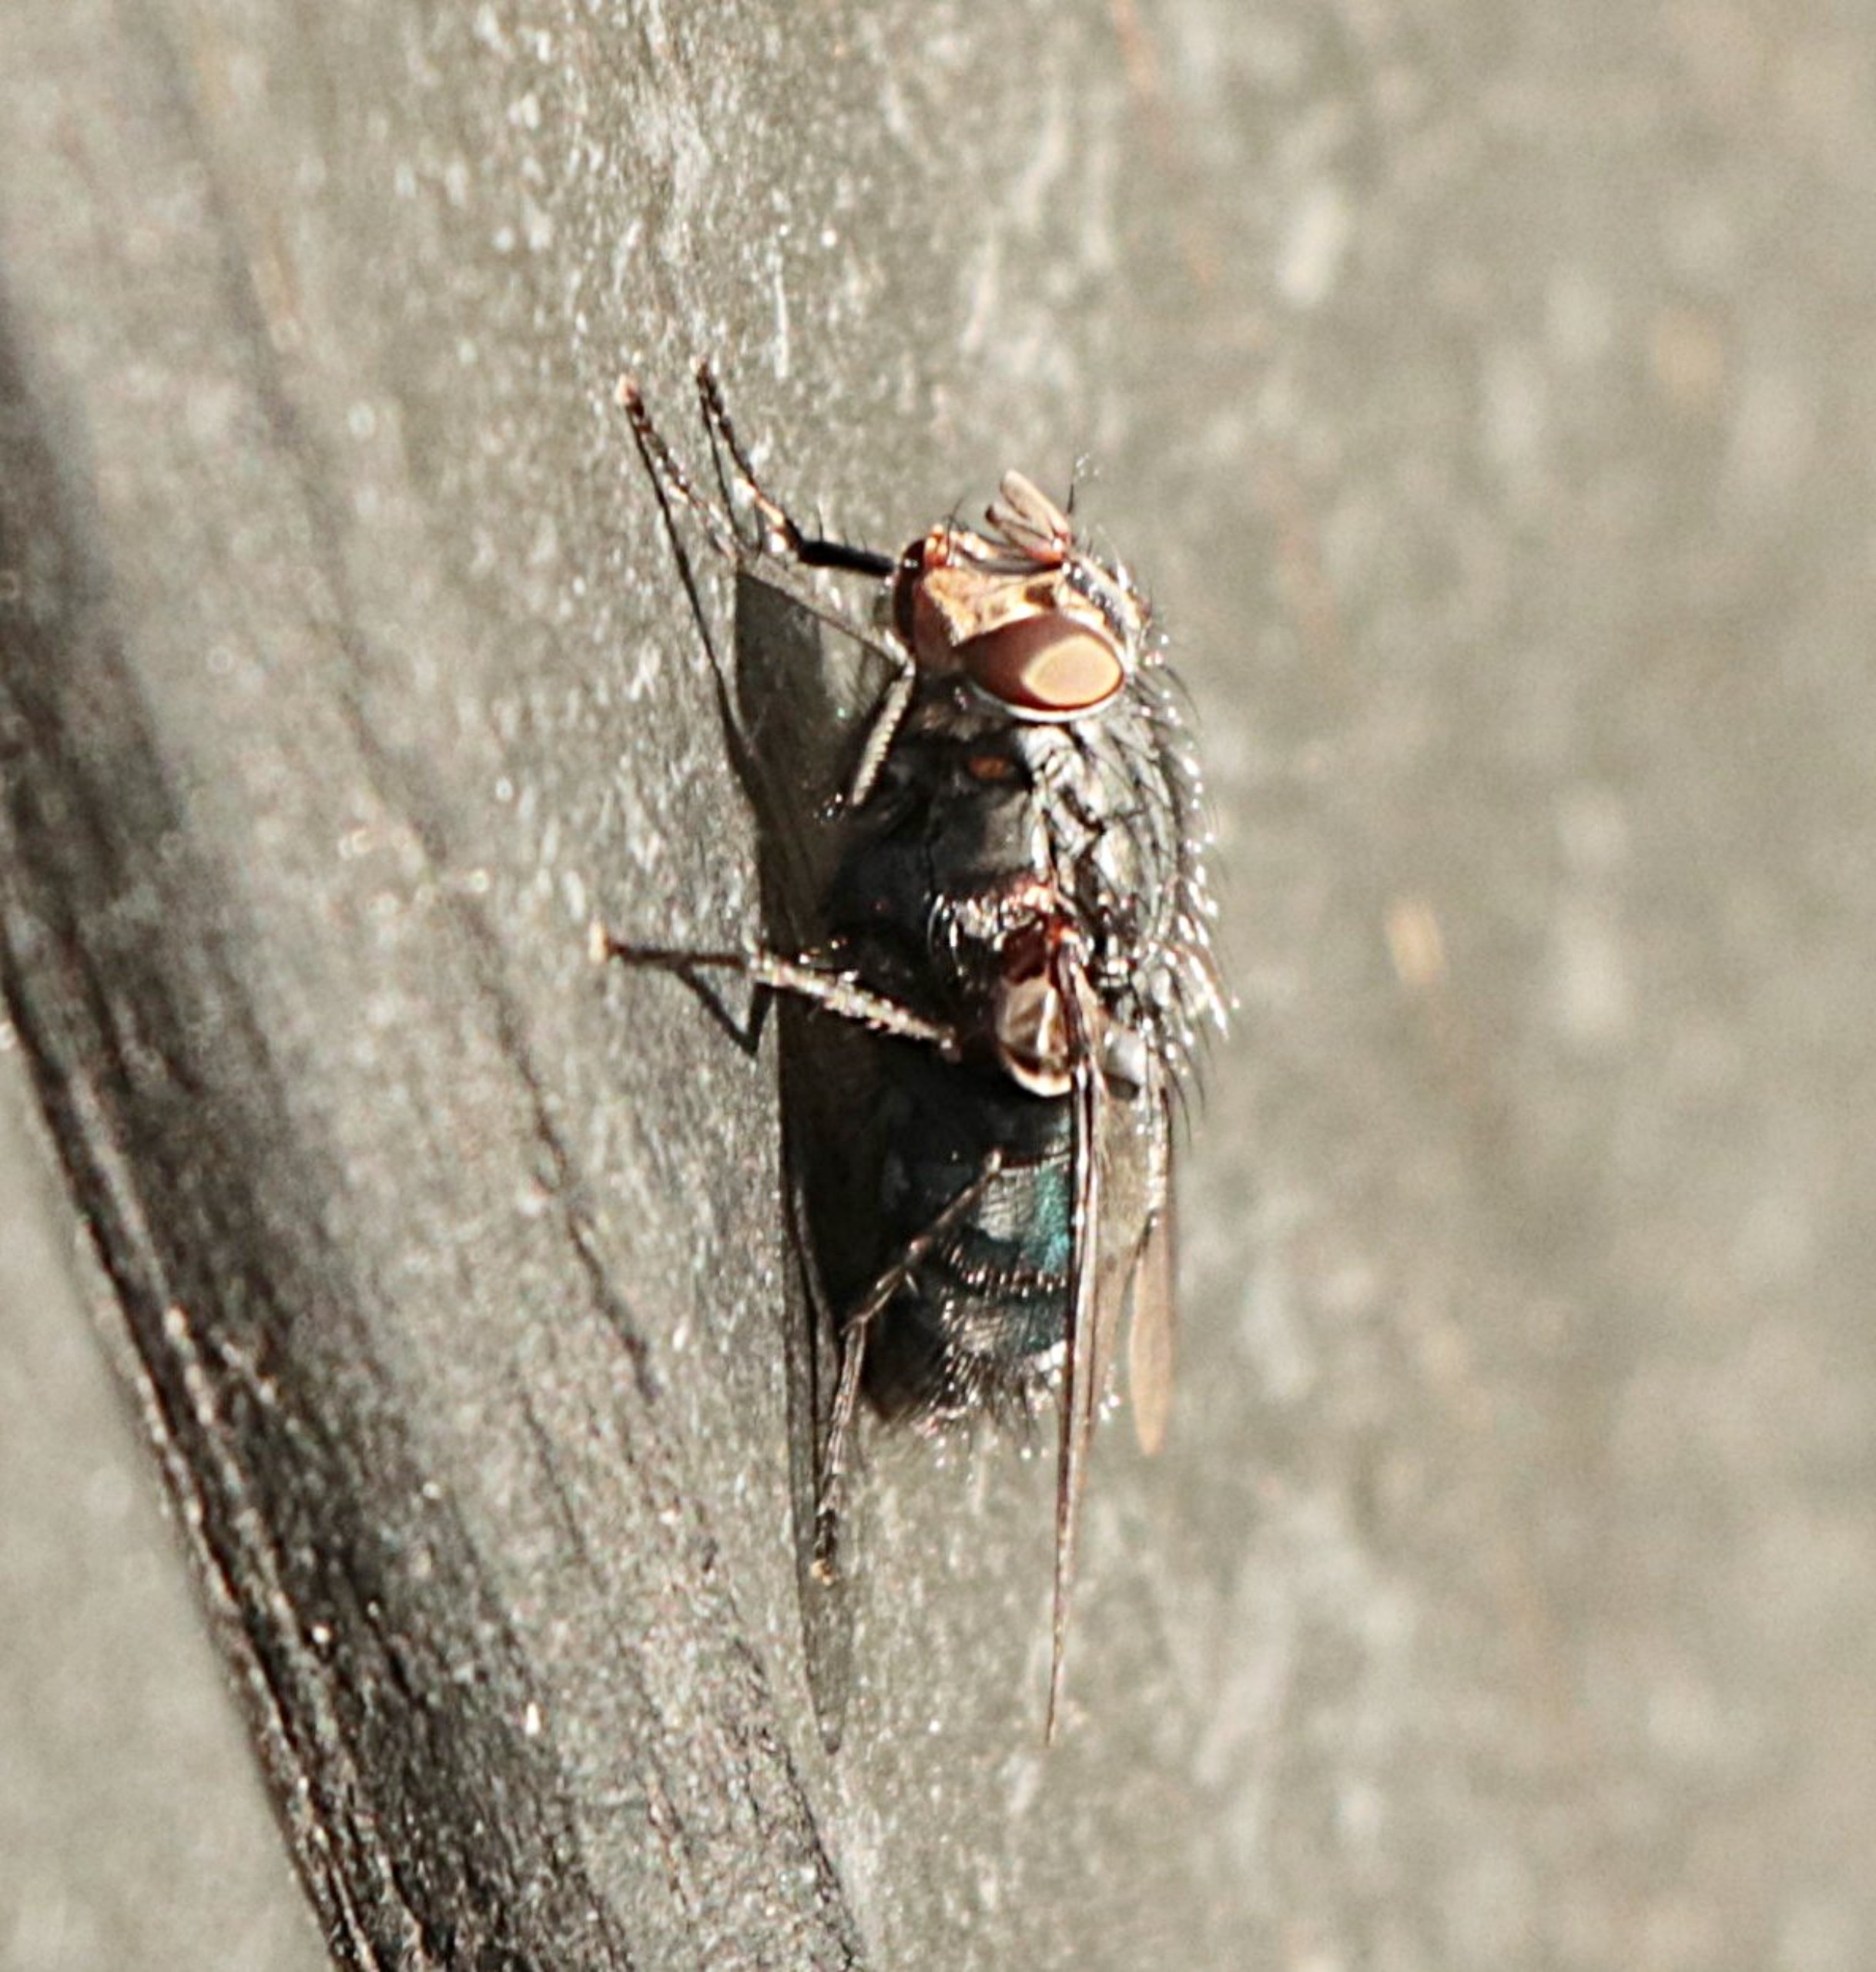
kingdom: Animalia
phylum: Arthropoda
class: Insecta
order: Diptera
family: Calliphoridae
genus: Calliphora
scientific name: Calliphora vicina
